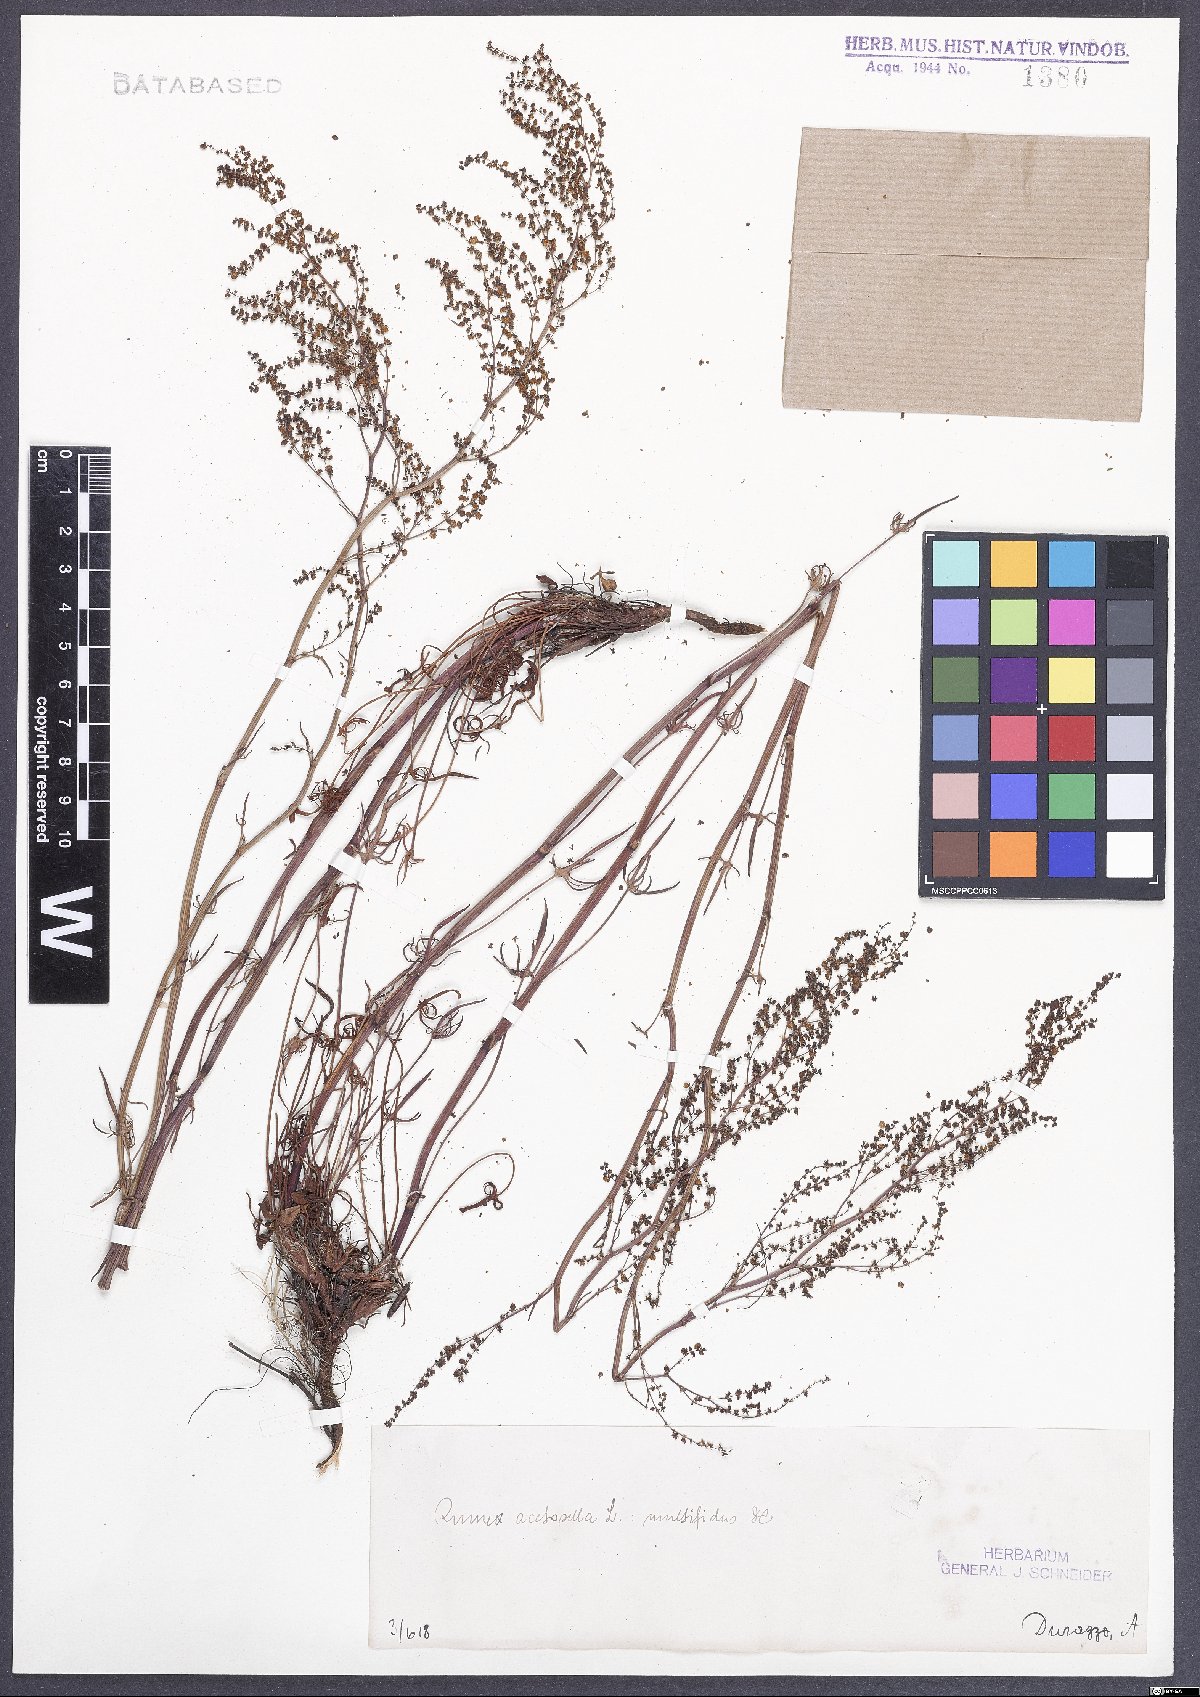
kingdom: Plantae
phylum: Tracheophyta
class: Magnoliopsida
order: Caryophyllales
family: Polygonaceae
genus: Rumex
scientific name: Rumex acetosella
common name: Common sheep sorrel
